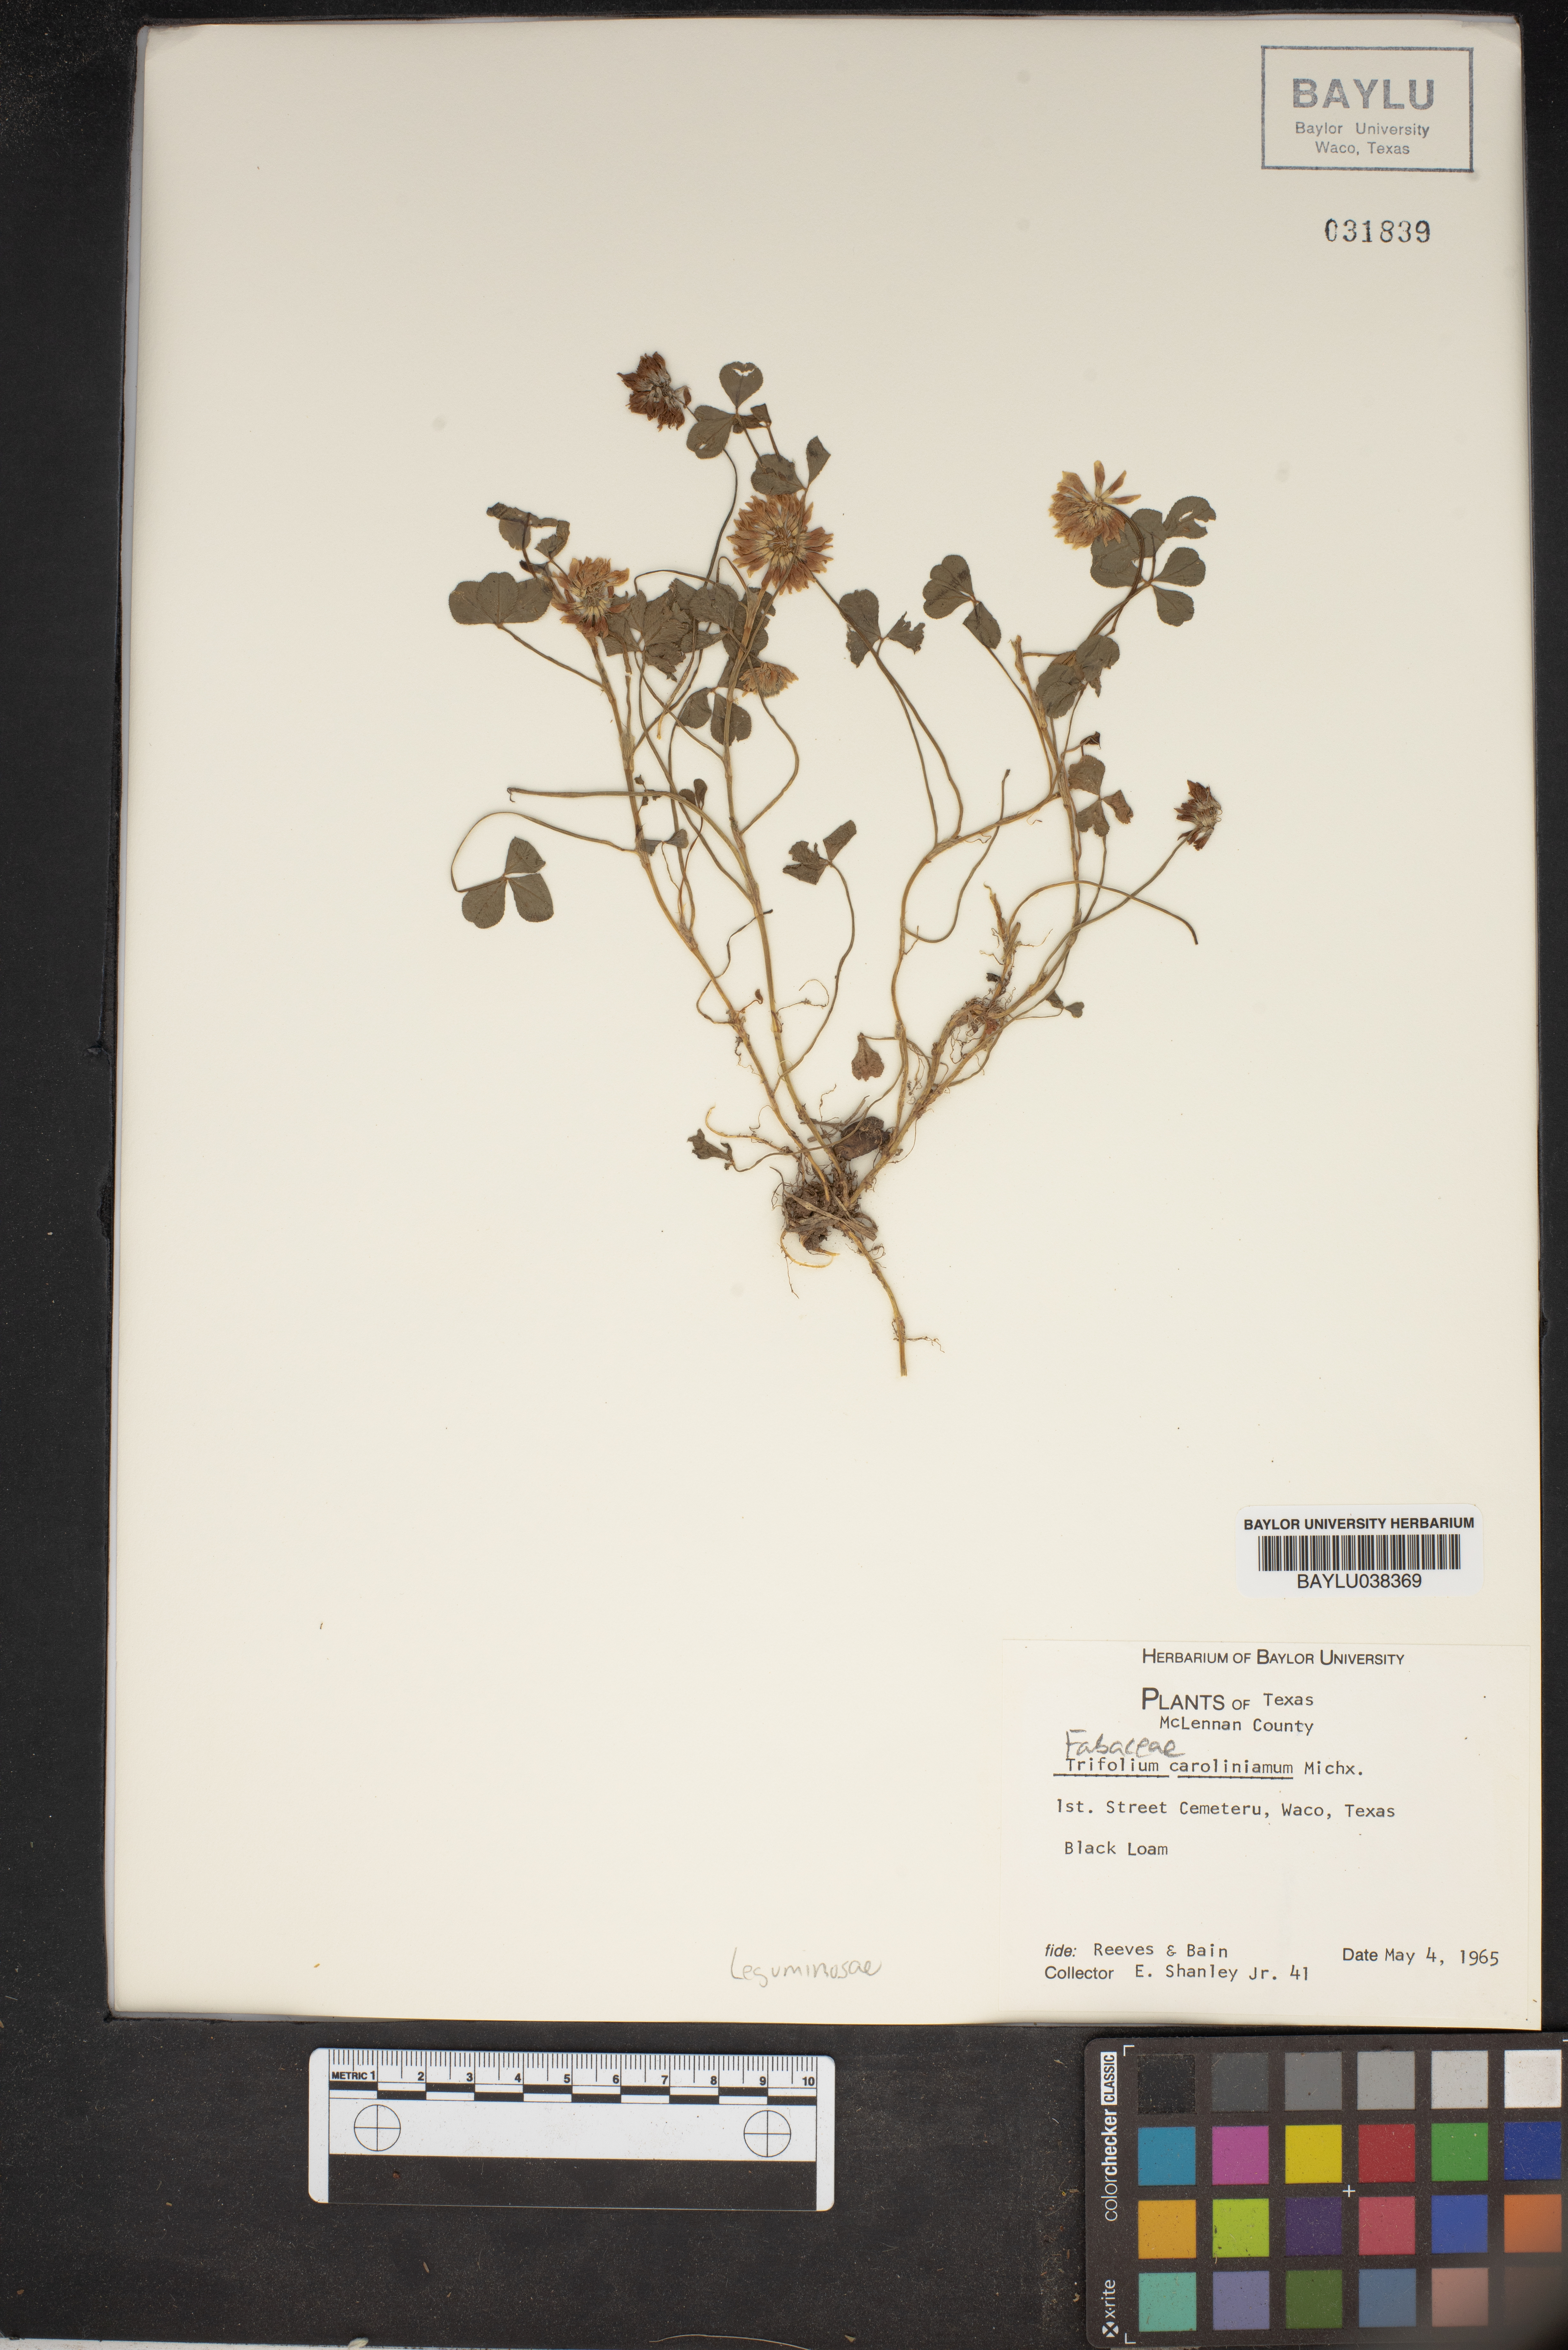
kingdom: Plantae
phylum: Tracheophyta
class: Magnoliopsida
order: Fabales
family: Fabaceae
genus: Trifolium
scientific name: Trifolium carolinianum
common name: Wild white clover
